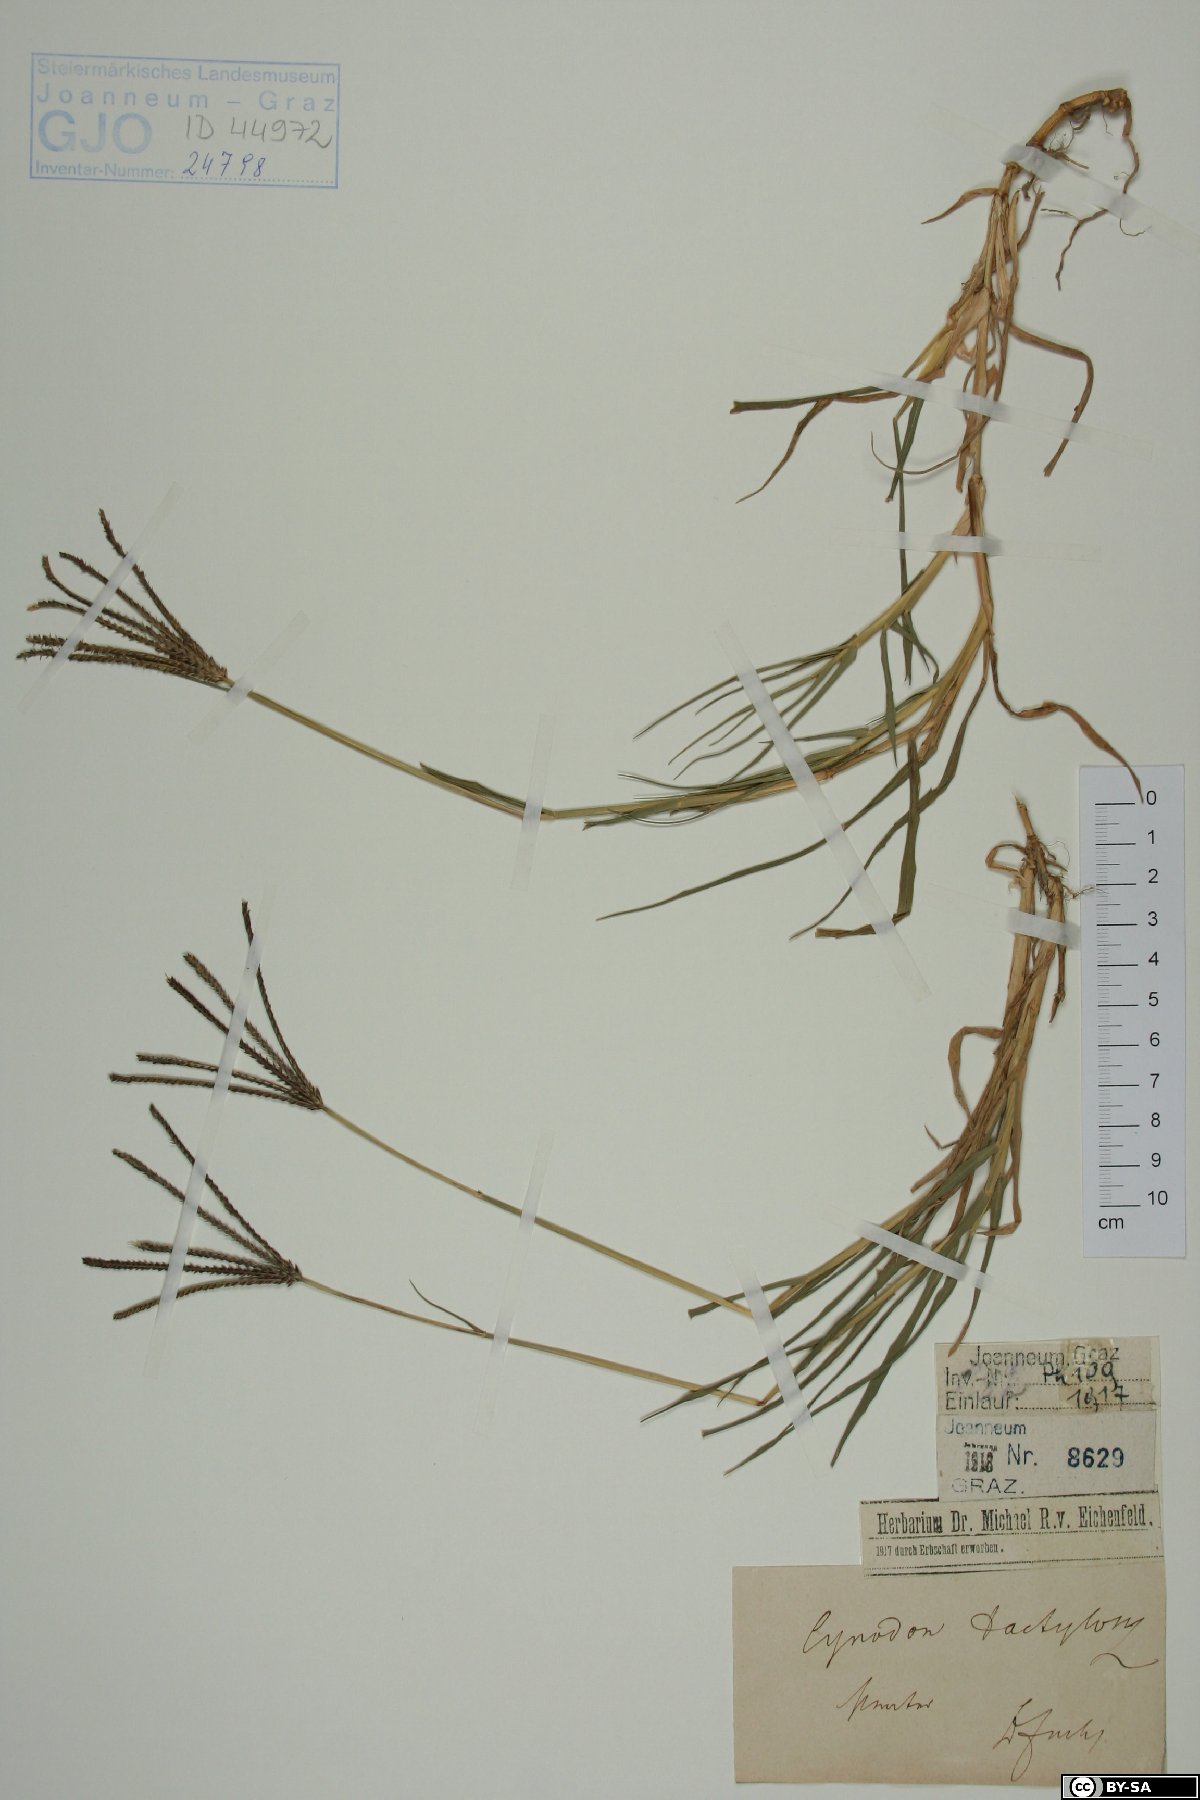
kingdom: Plantae
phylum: Tracheophyta
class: Liliopsida
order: Poales
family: Poaceae
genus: Cynodon
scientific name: Cynodon dactylon
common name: Bermuda grass
